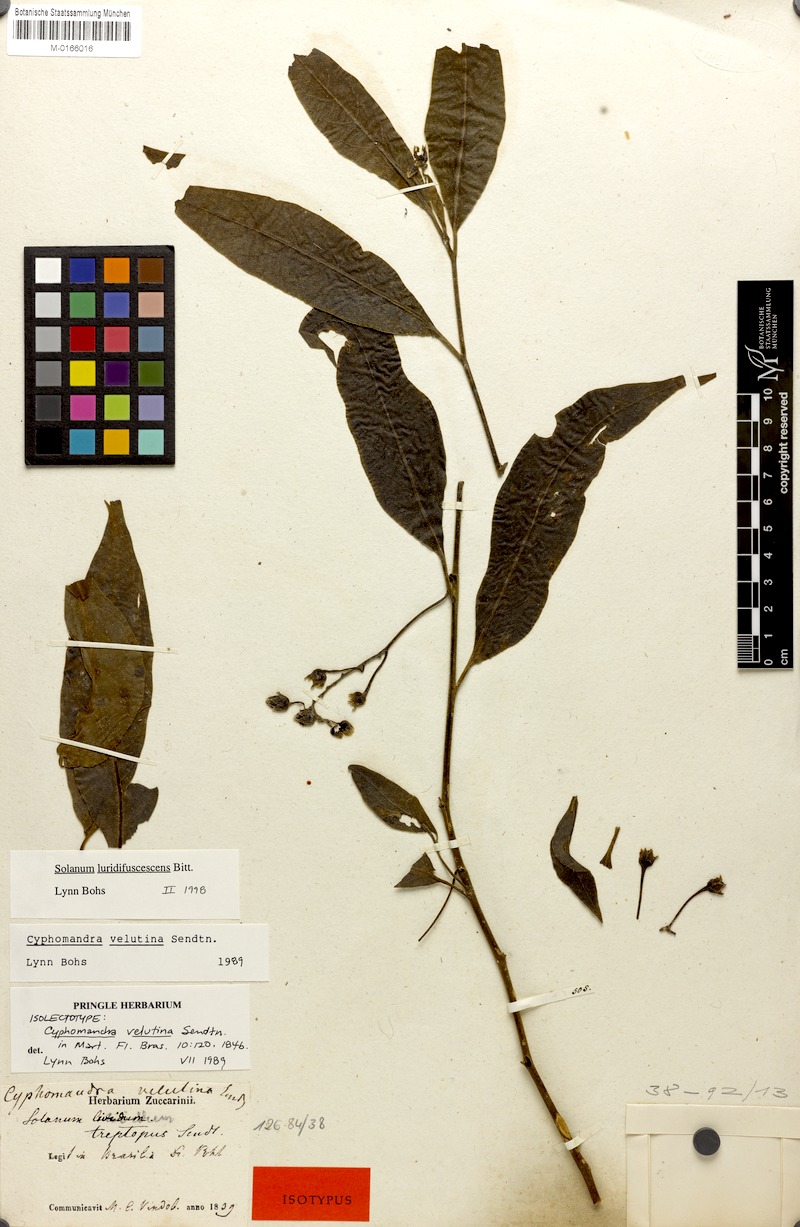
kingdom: Plantae
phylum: Tracheophyta
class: Magnoliopsida
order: Solanales
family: Solanaceae
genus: Solanum
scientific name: Solanum luridifuscescens
